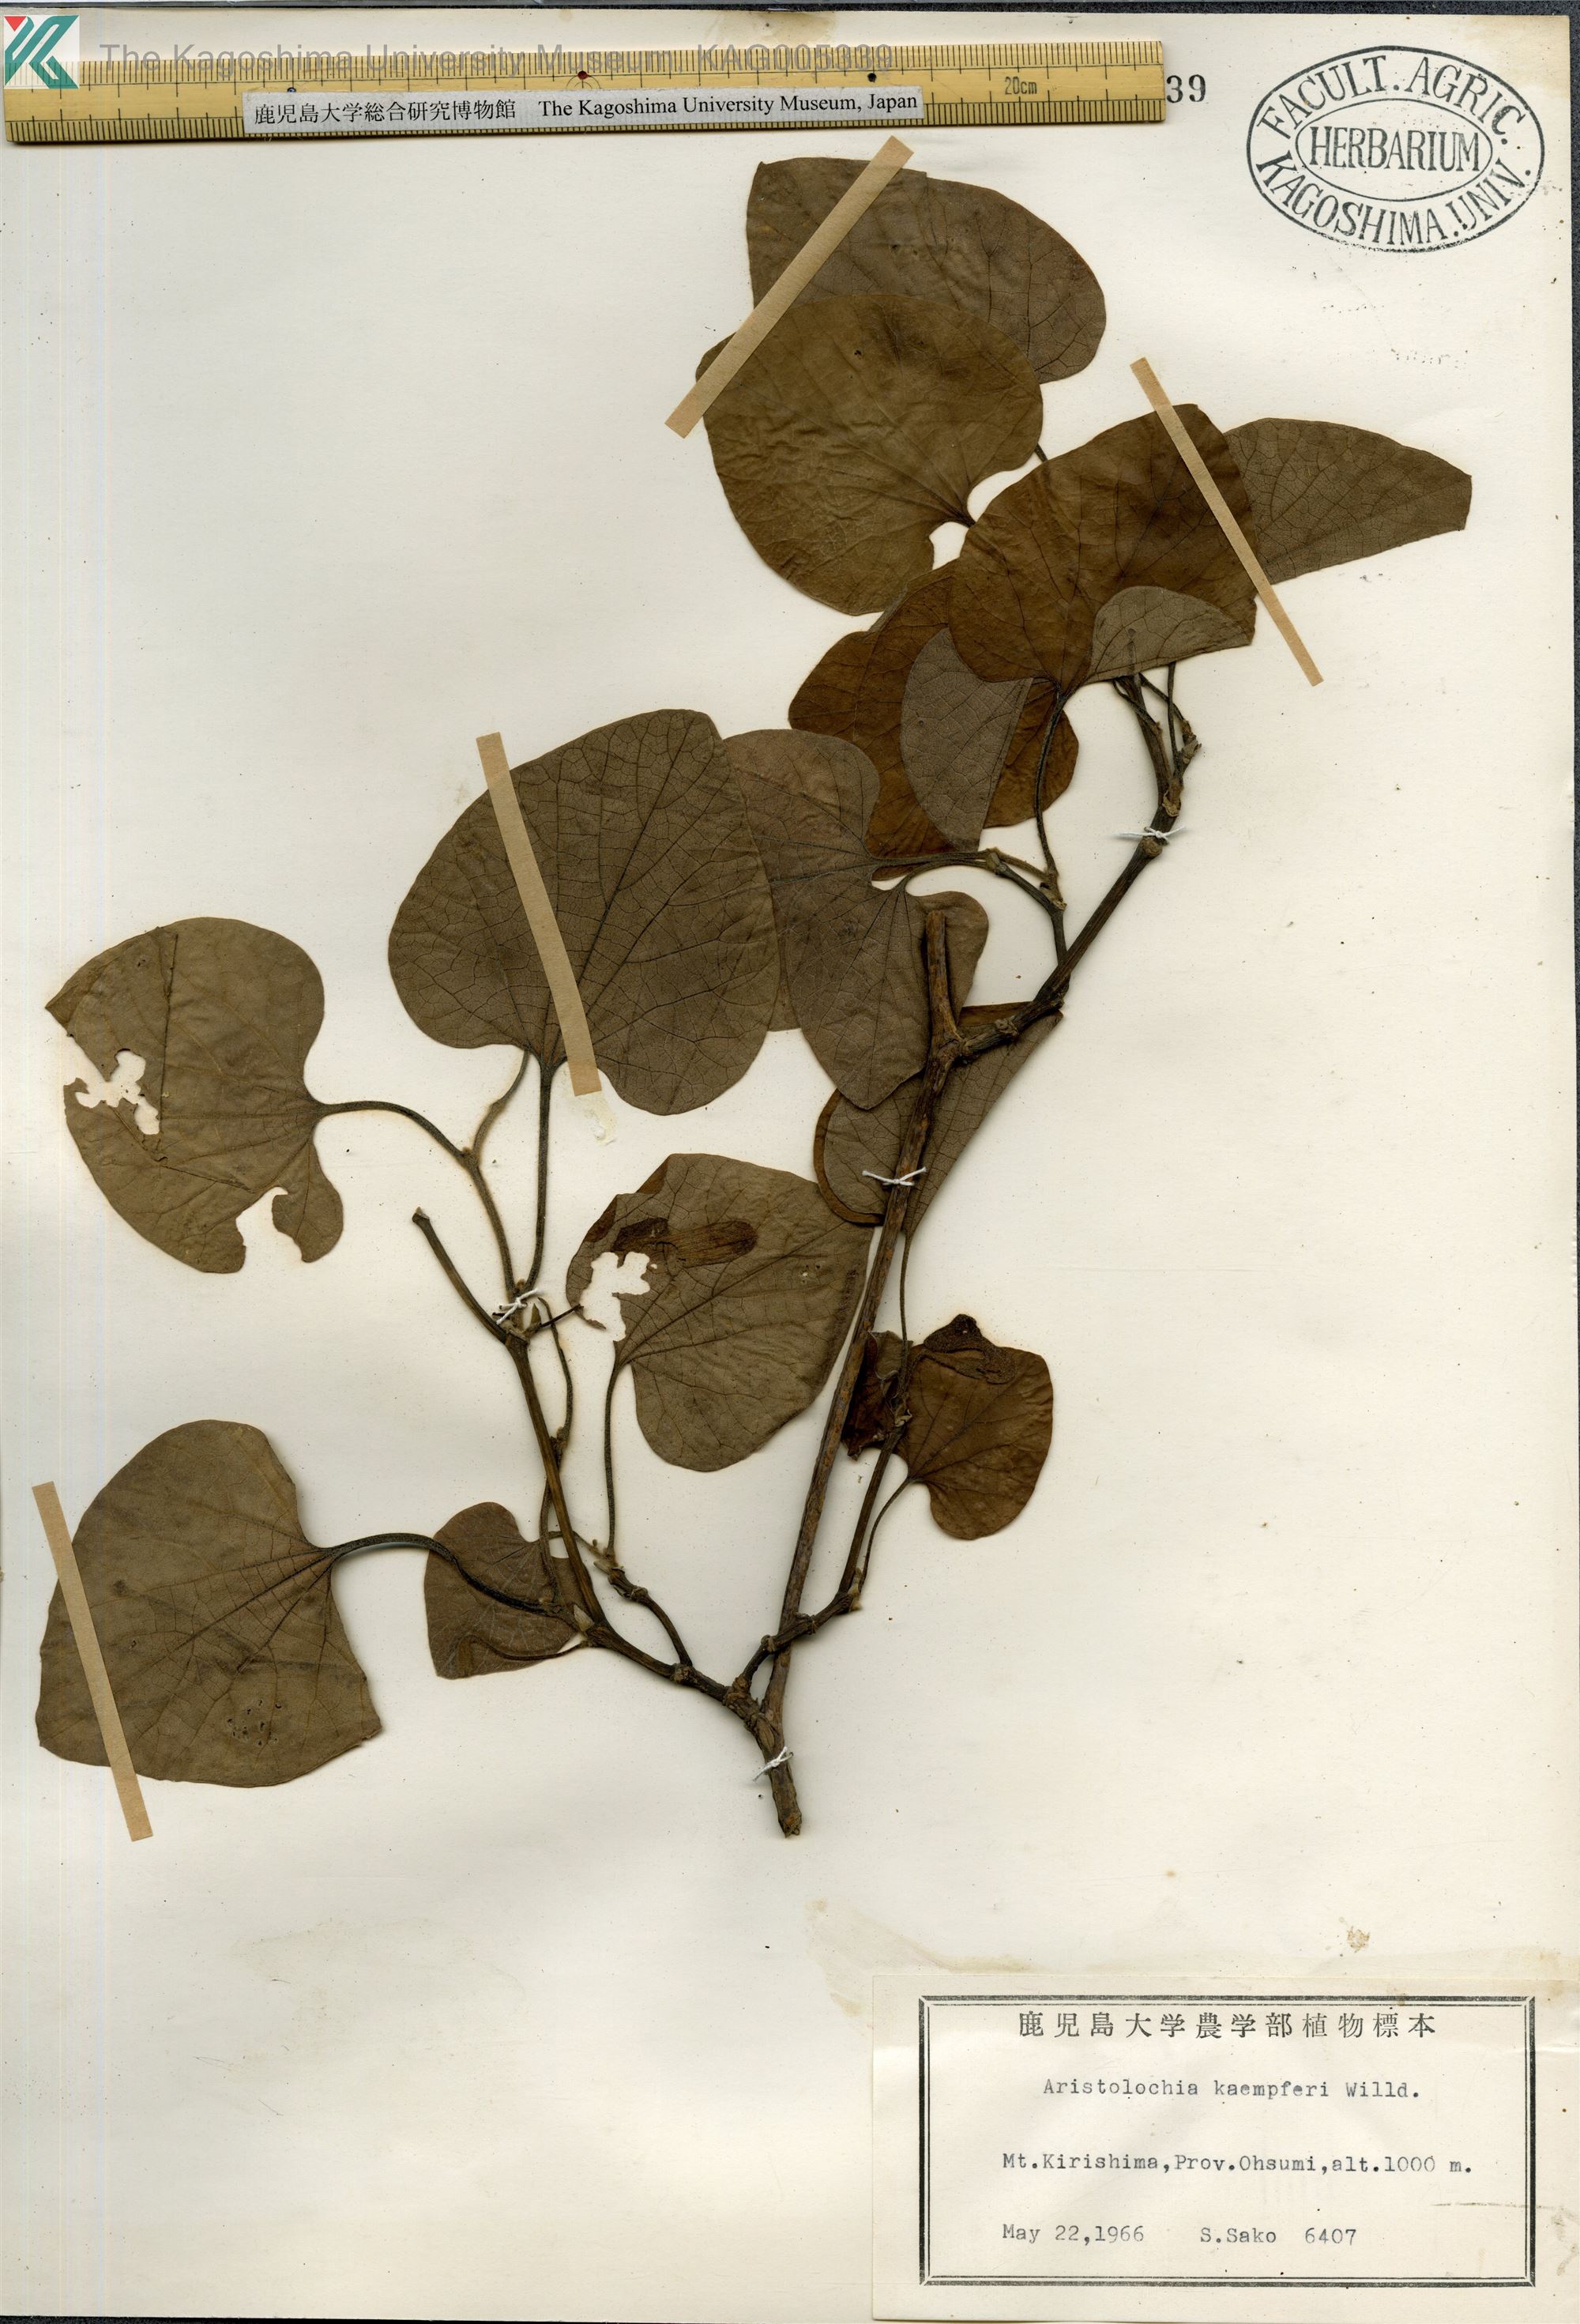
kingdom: Plantae
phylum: Tracheophyta
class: Magnoliopsida
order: Piperales
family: Aristolochiaceae
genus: Isotrema
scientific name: Isotrema kaempferi
